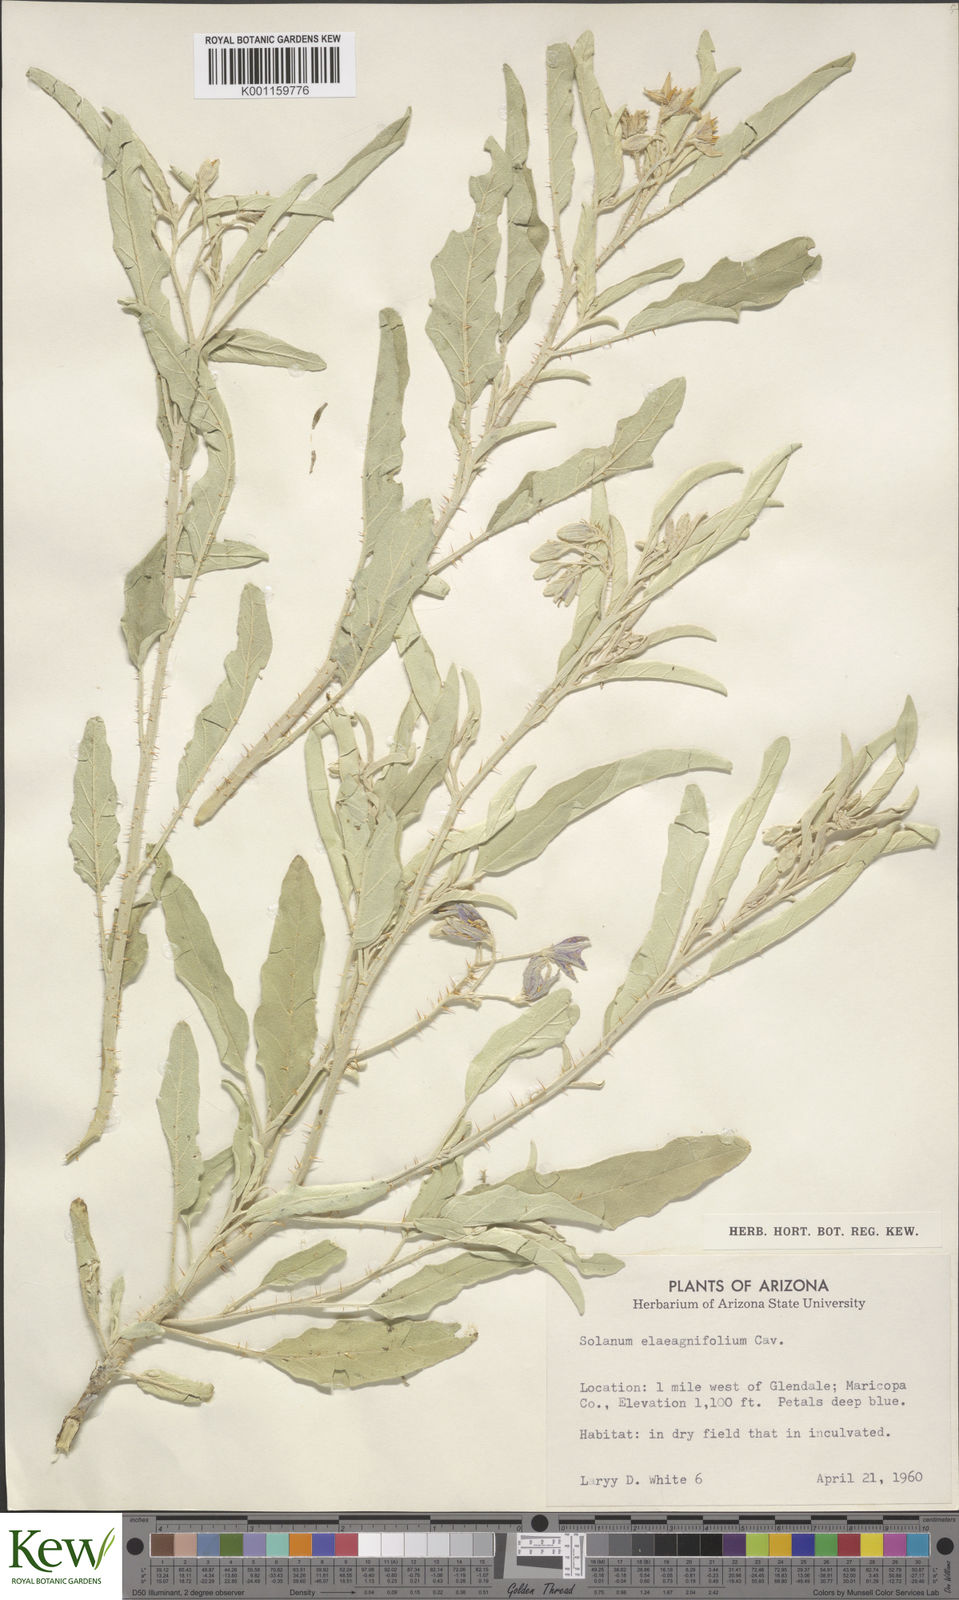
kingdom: Plantae
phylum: Tracheophyta
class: Magnoliopsida
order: Solanales
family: Solanaceae
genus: Solanum
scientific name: Solanum
